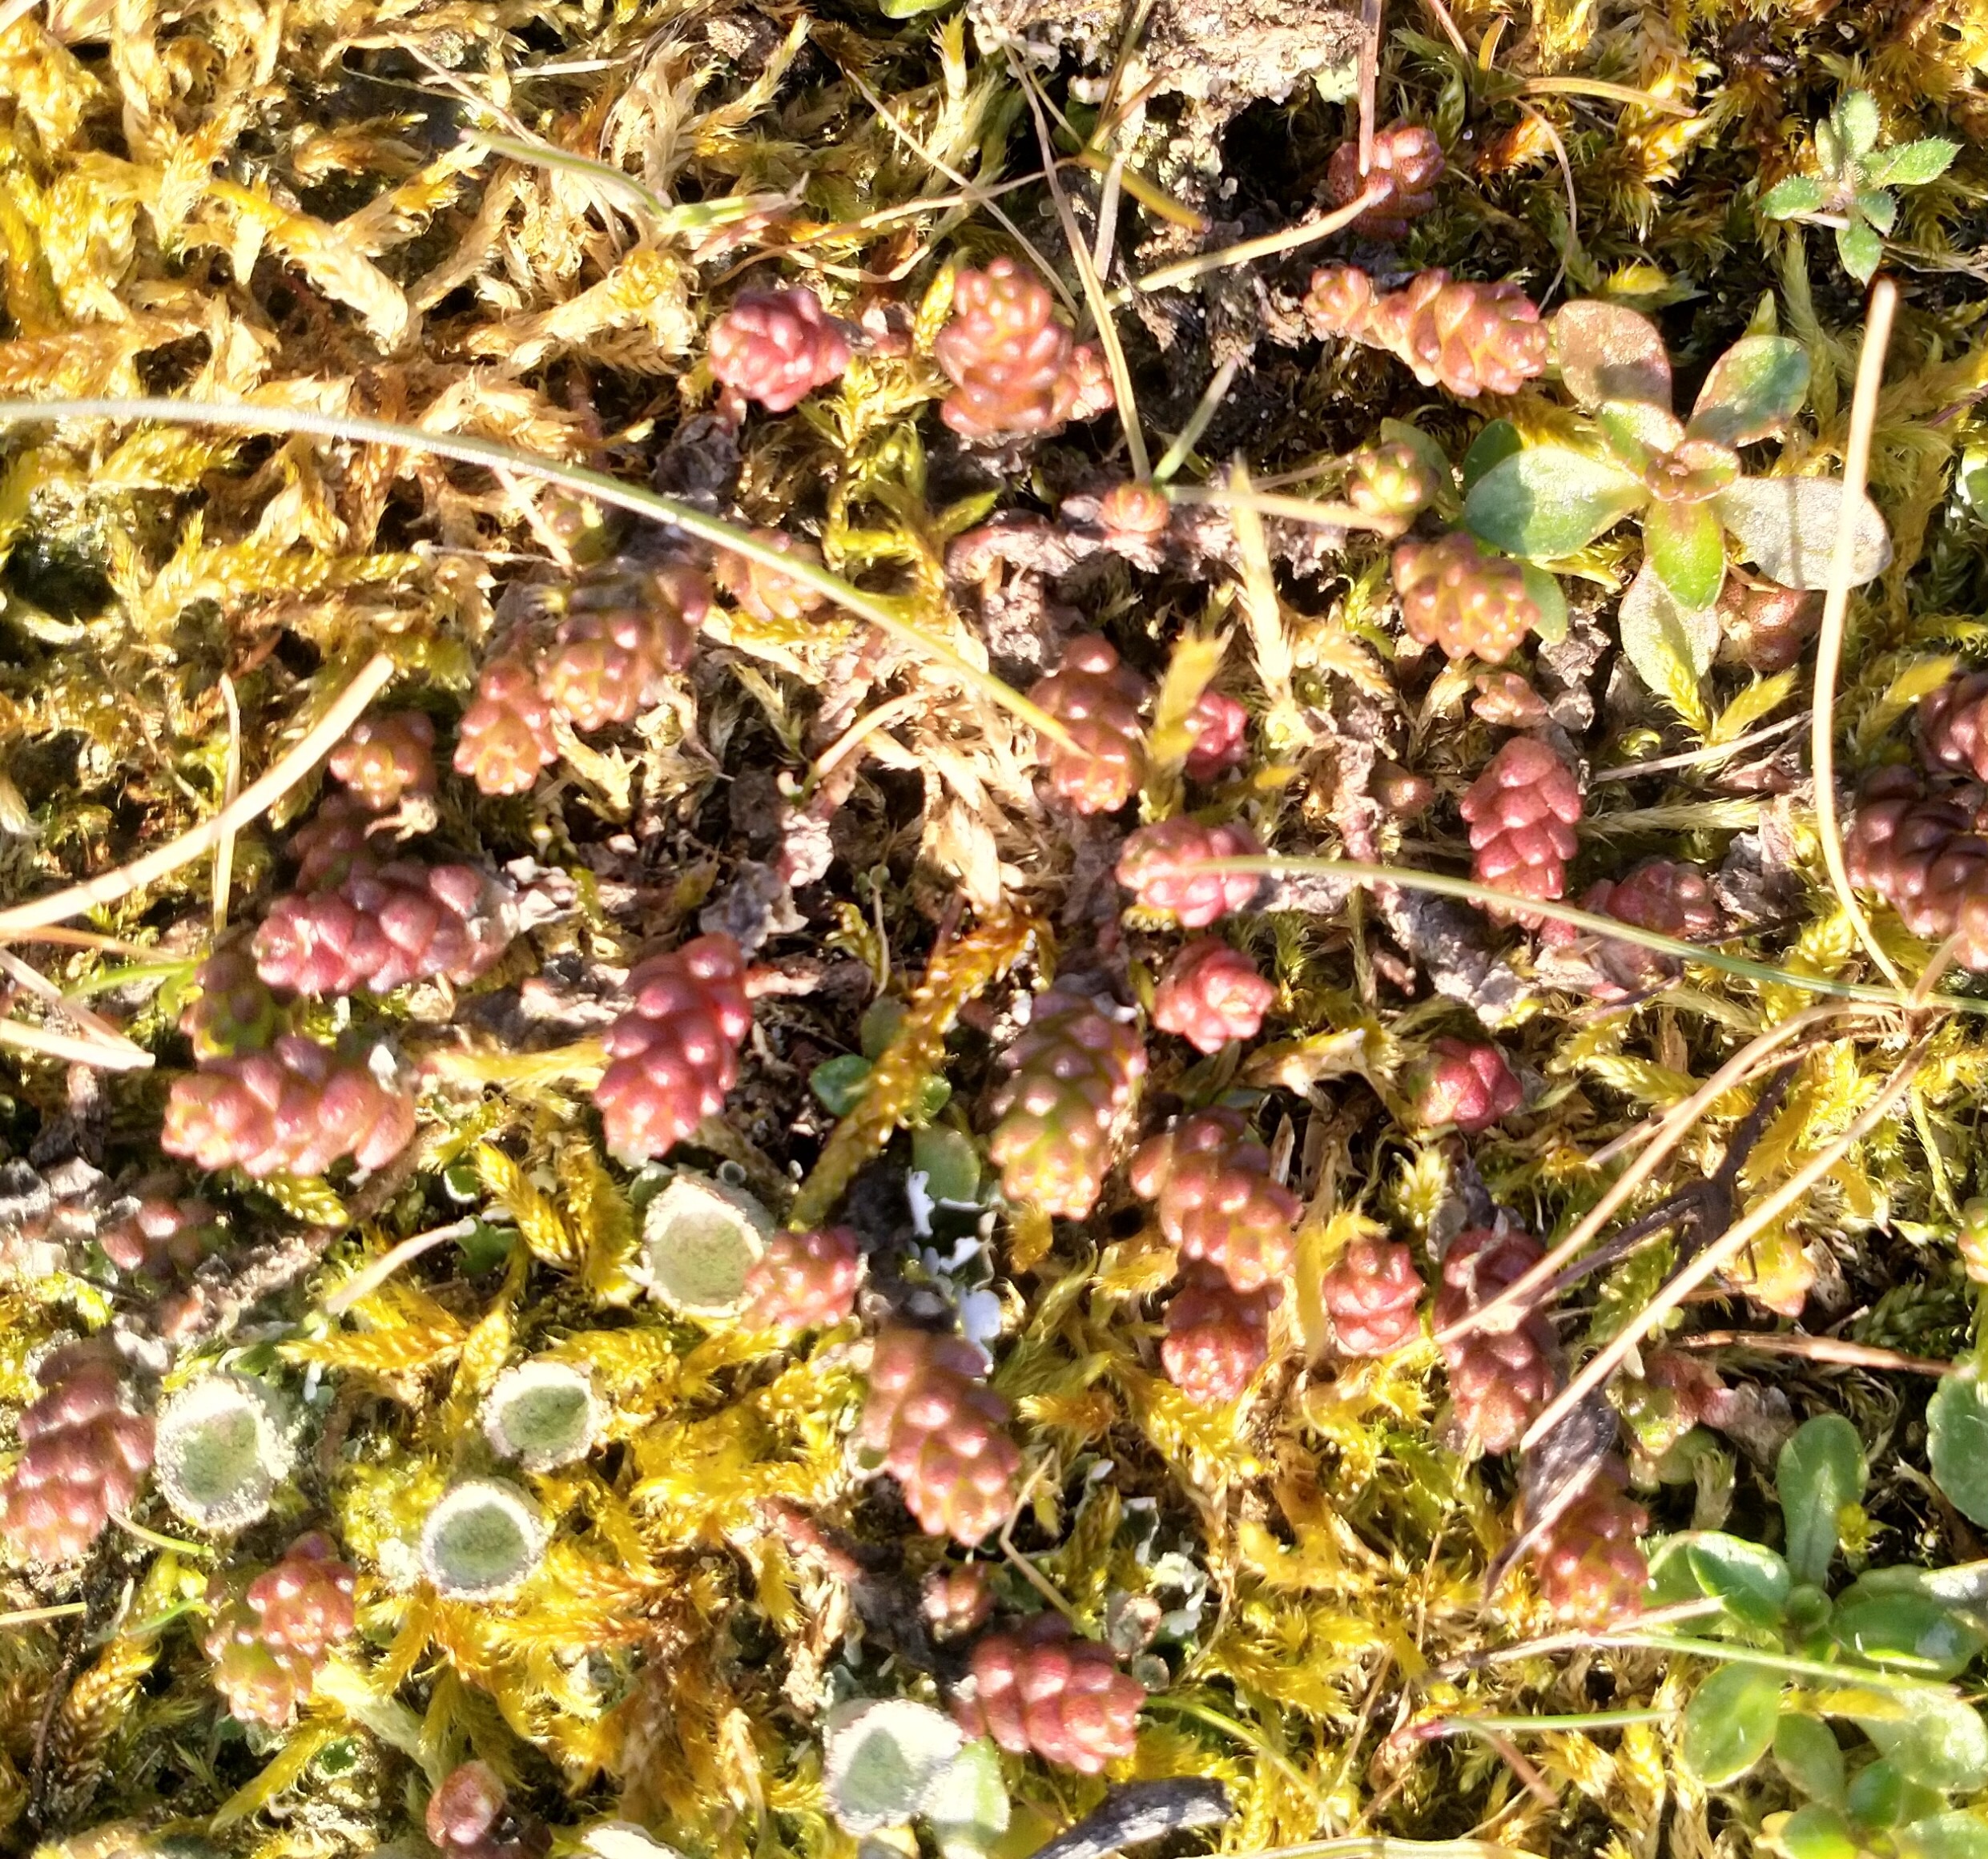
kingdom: Plantae
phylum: Tracheophyta
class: Magnoliopsida
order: Saxifragales
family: Crassulaceae
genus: Sedum
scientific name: Sedum acre
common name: Bidende stenurt
